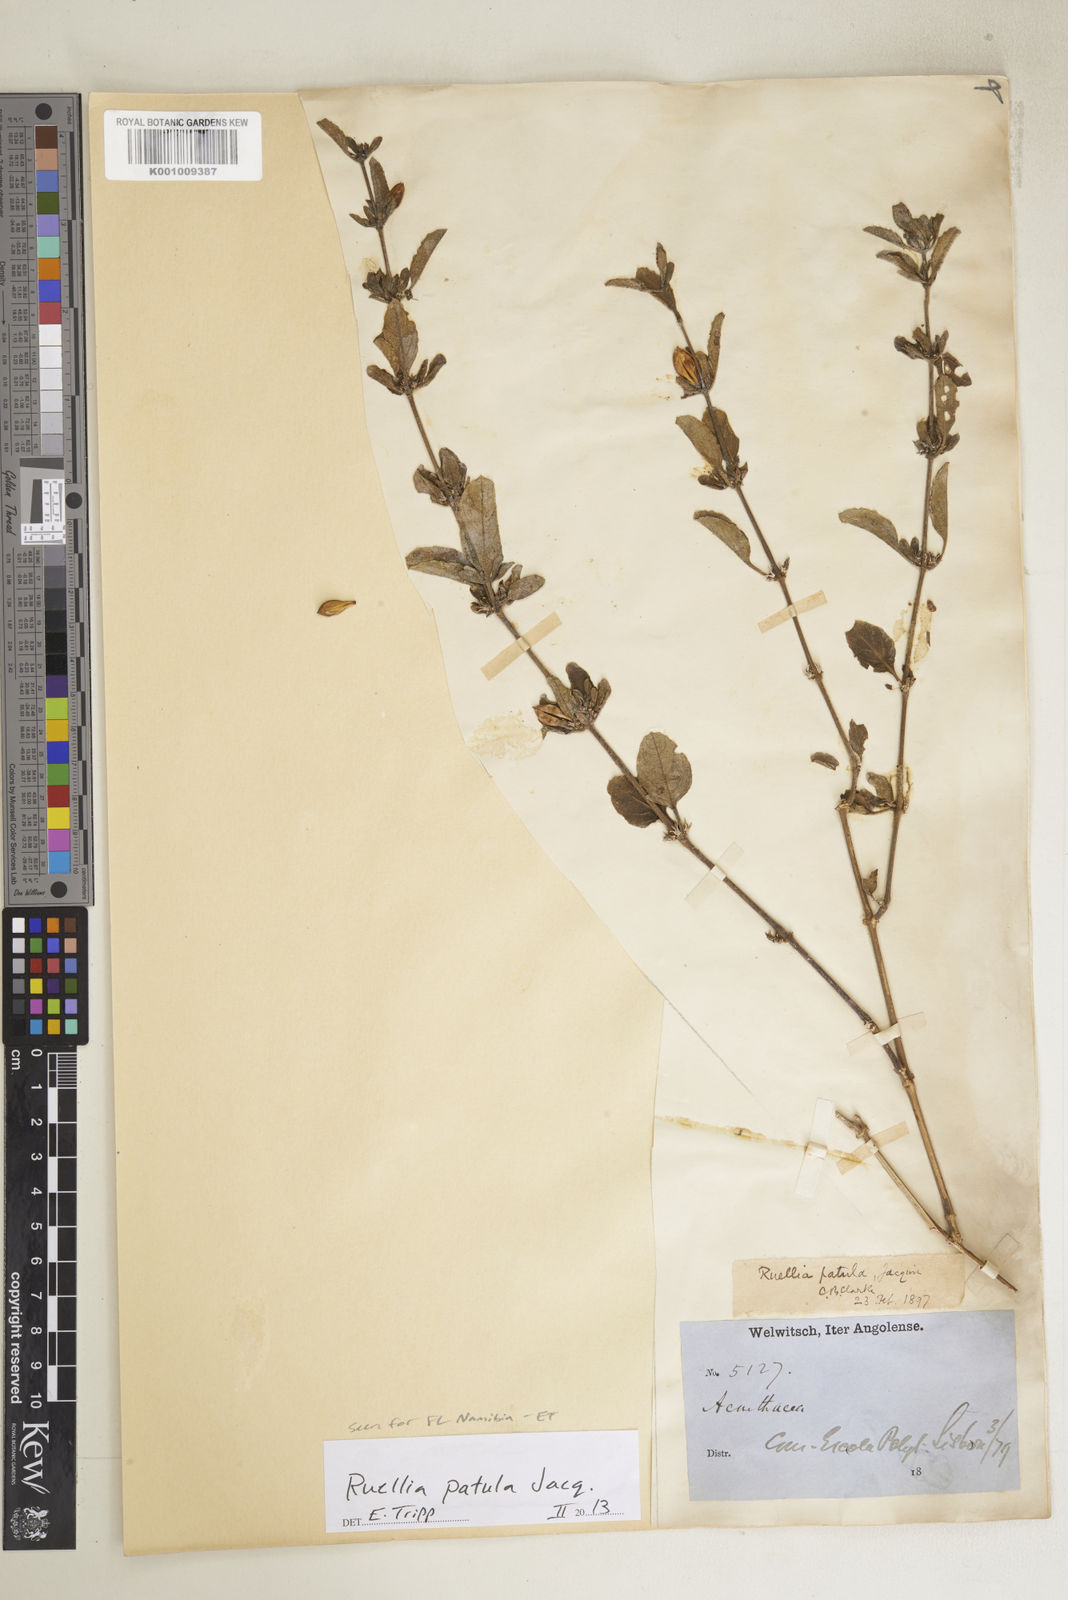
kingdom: Plantae
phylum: Tracheophyta
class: Magnoliopsida
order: Lamiales
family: Acanthaceae
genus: Ruellia
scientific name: Ruellia patula
